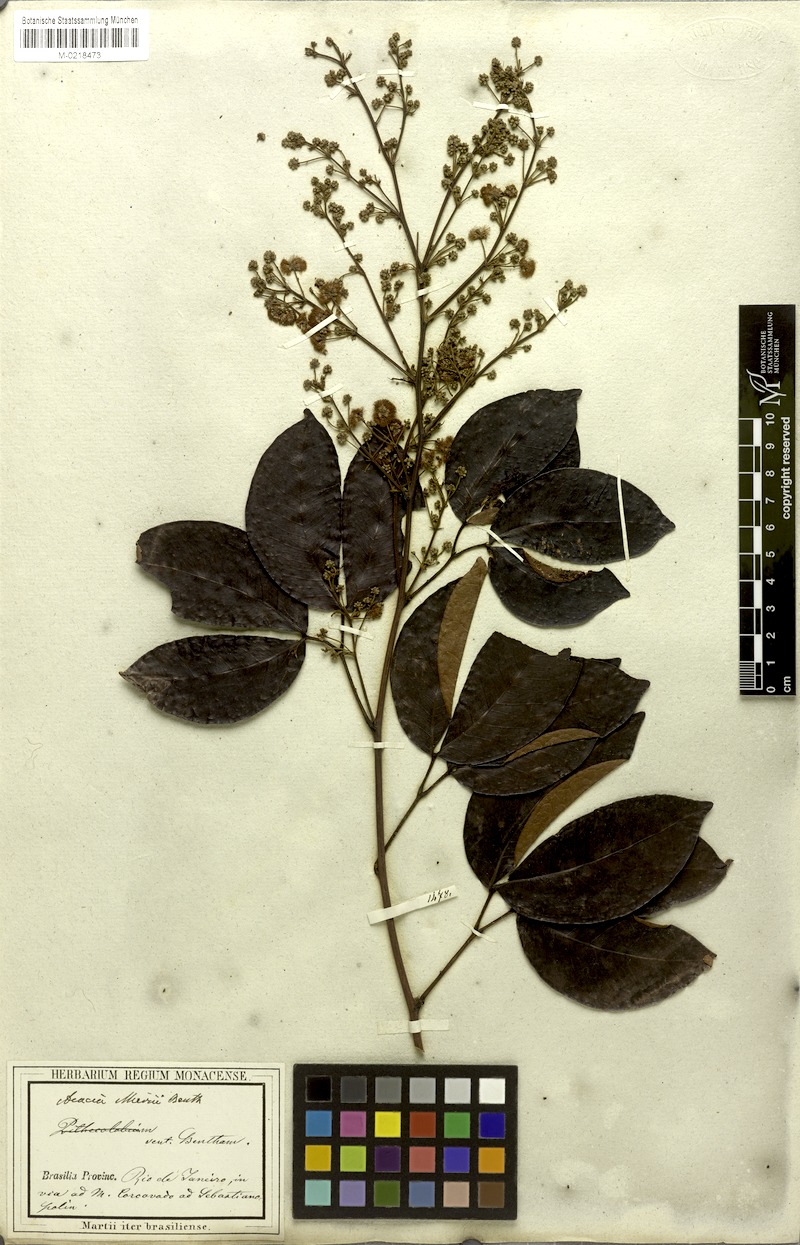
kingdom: Plantae
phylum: Tracheophyta
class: Magnoliopsida
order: Fabales
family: Fabaceae
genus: Parasenegalia
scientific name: Parasenegalia miersii
